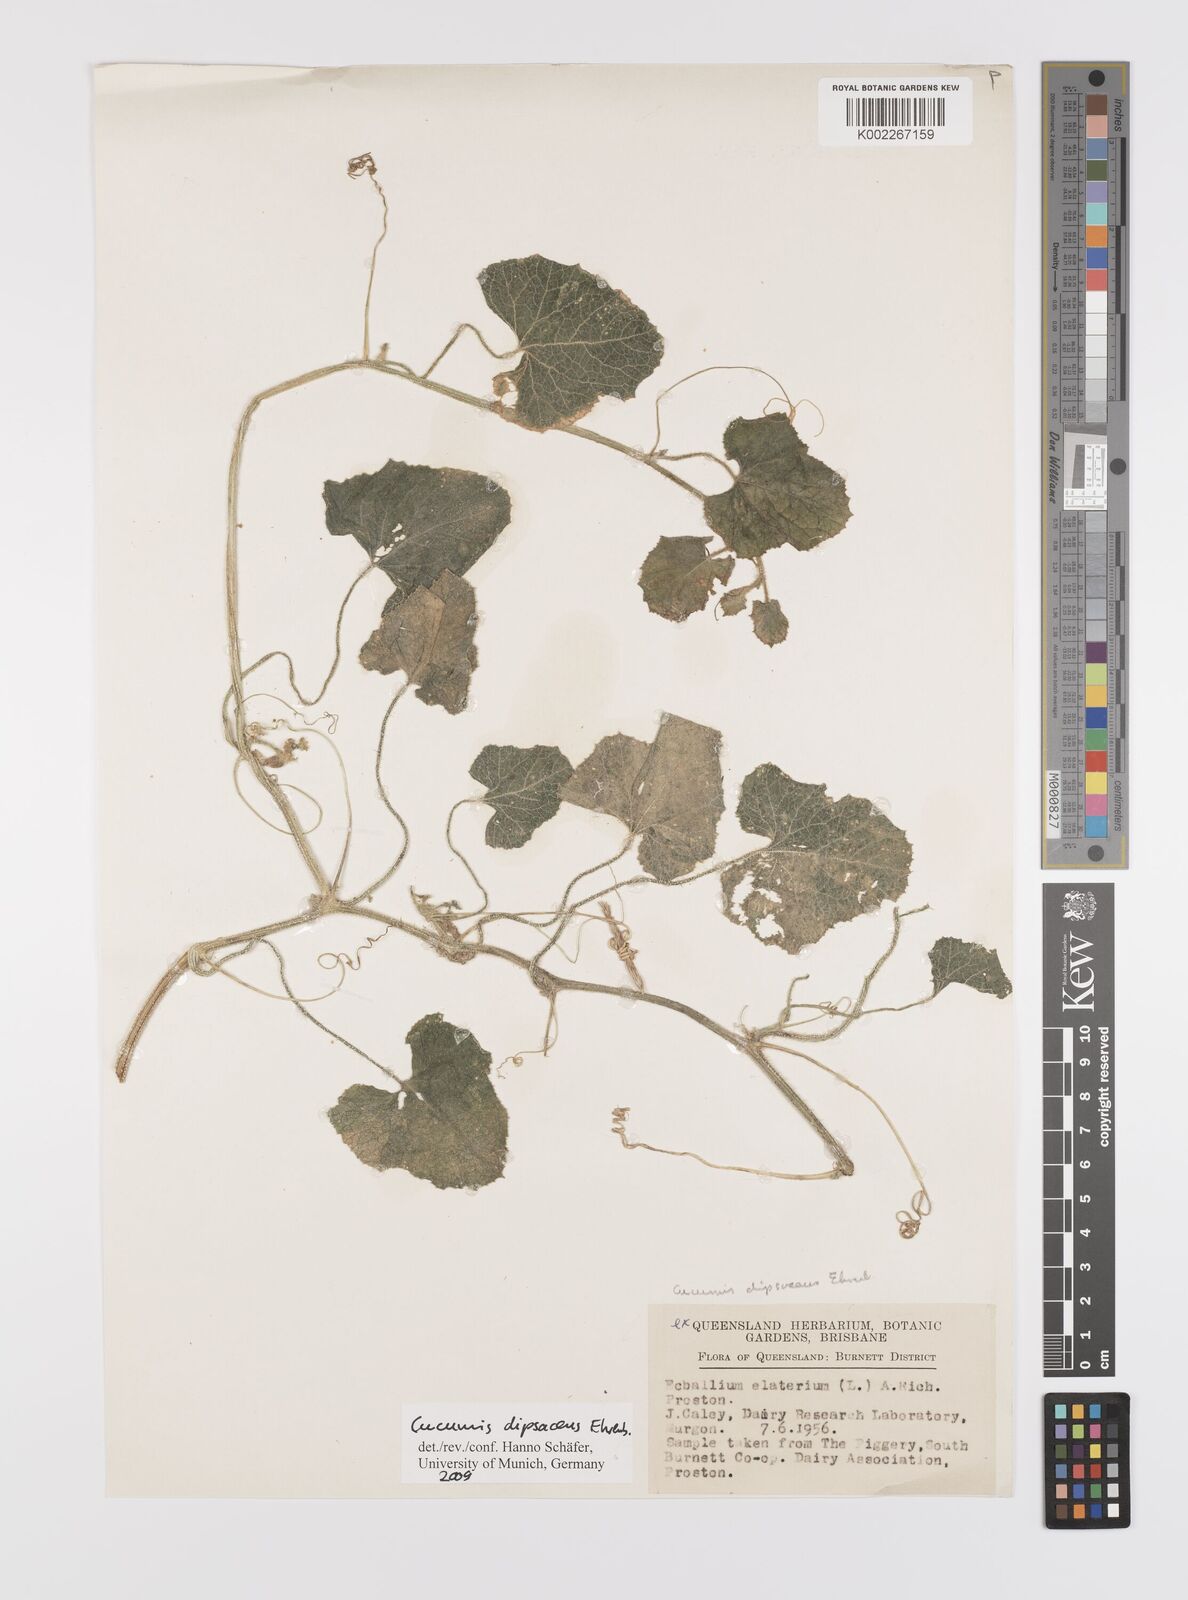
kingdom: Plantae
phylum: Tracheophyta
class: Magnoliopsida
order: Cucurbitales
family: Cucurbitaceae
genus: Cucumis
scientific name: Cucumis dipsaceus
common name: Hedgehog gourd
